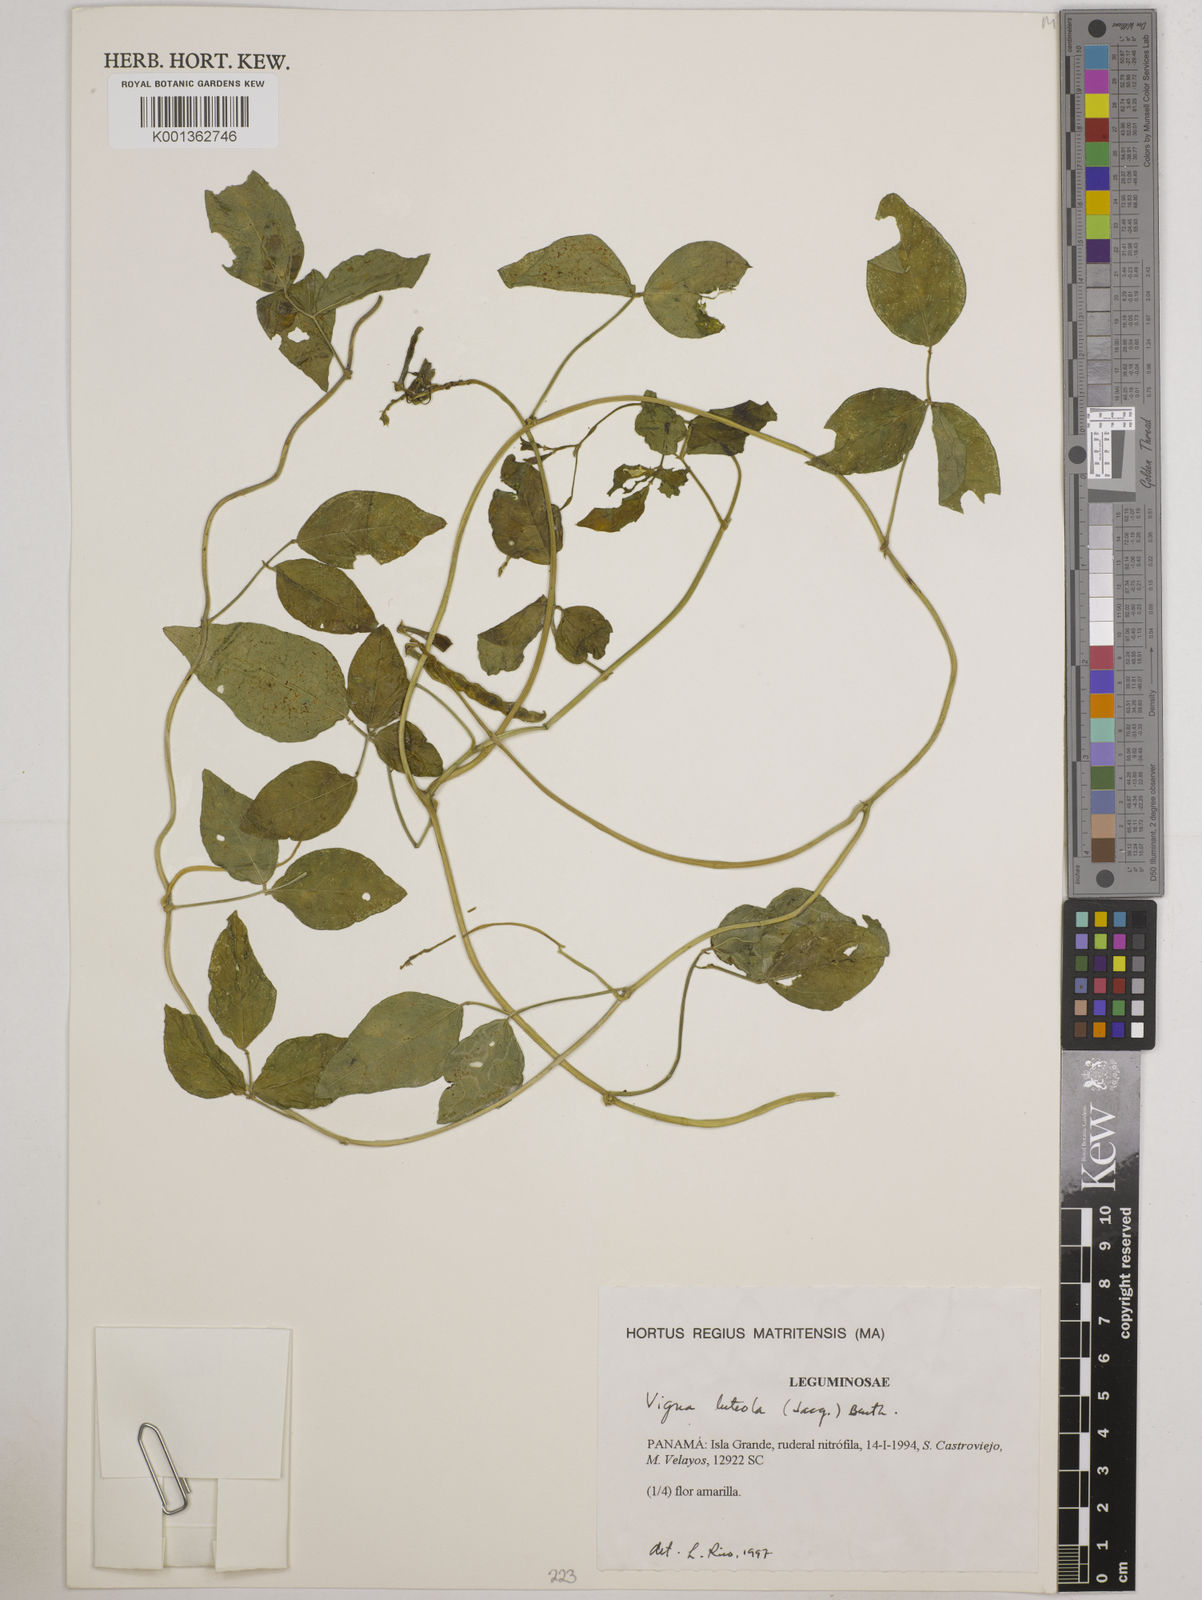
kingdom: Plantae
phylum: Tracheophyta
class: Magnoliopsida
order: Fabales
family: Fabaceae
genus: Vigna
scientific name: Vigna luteola
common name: Hairypod cowpea
